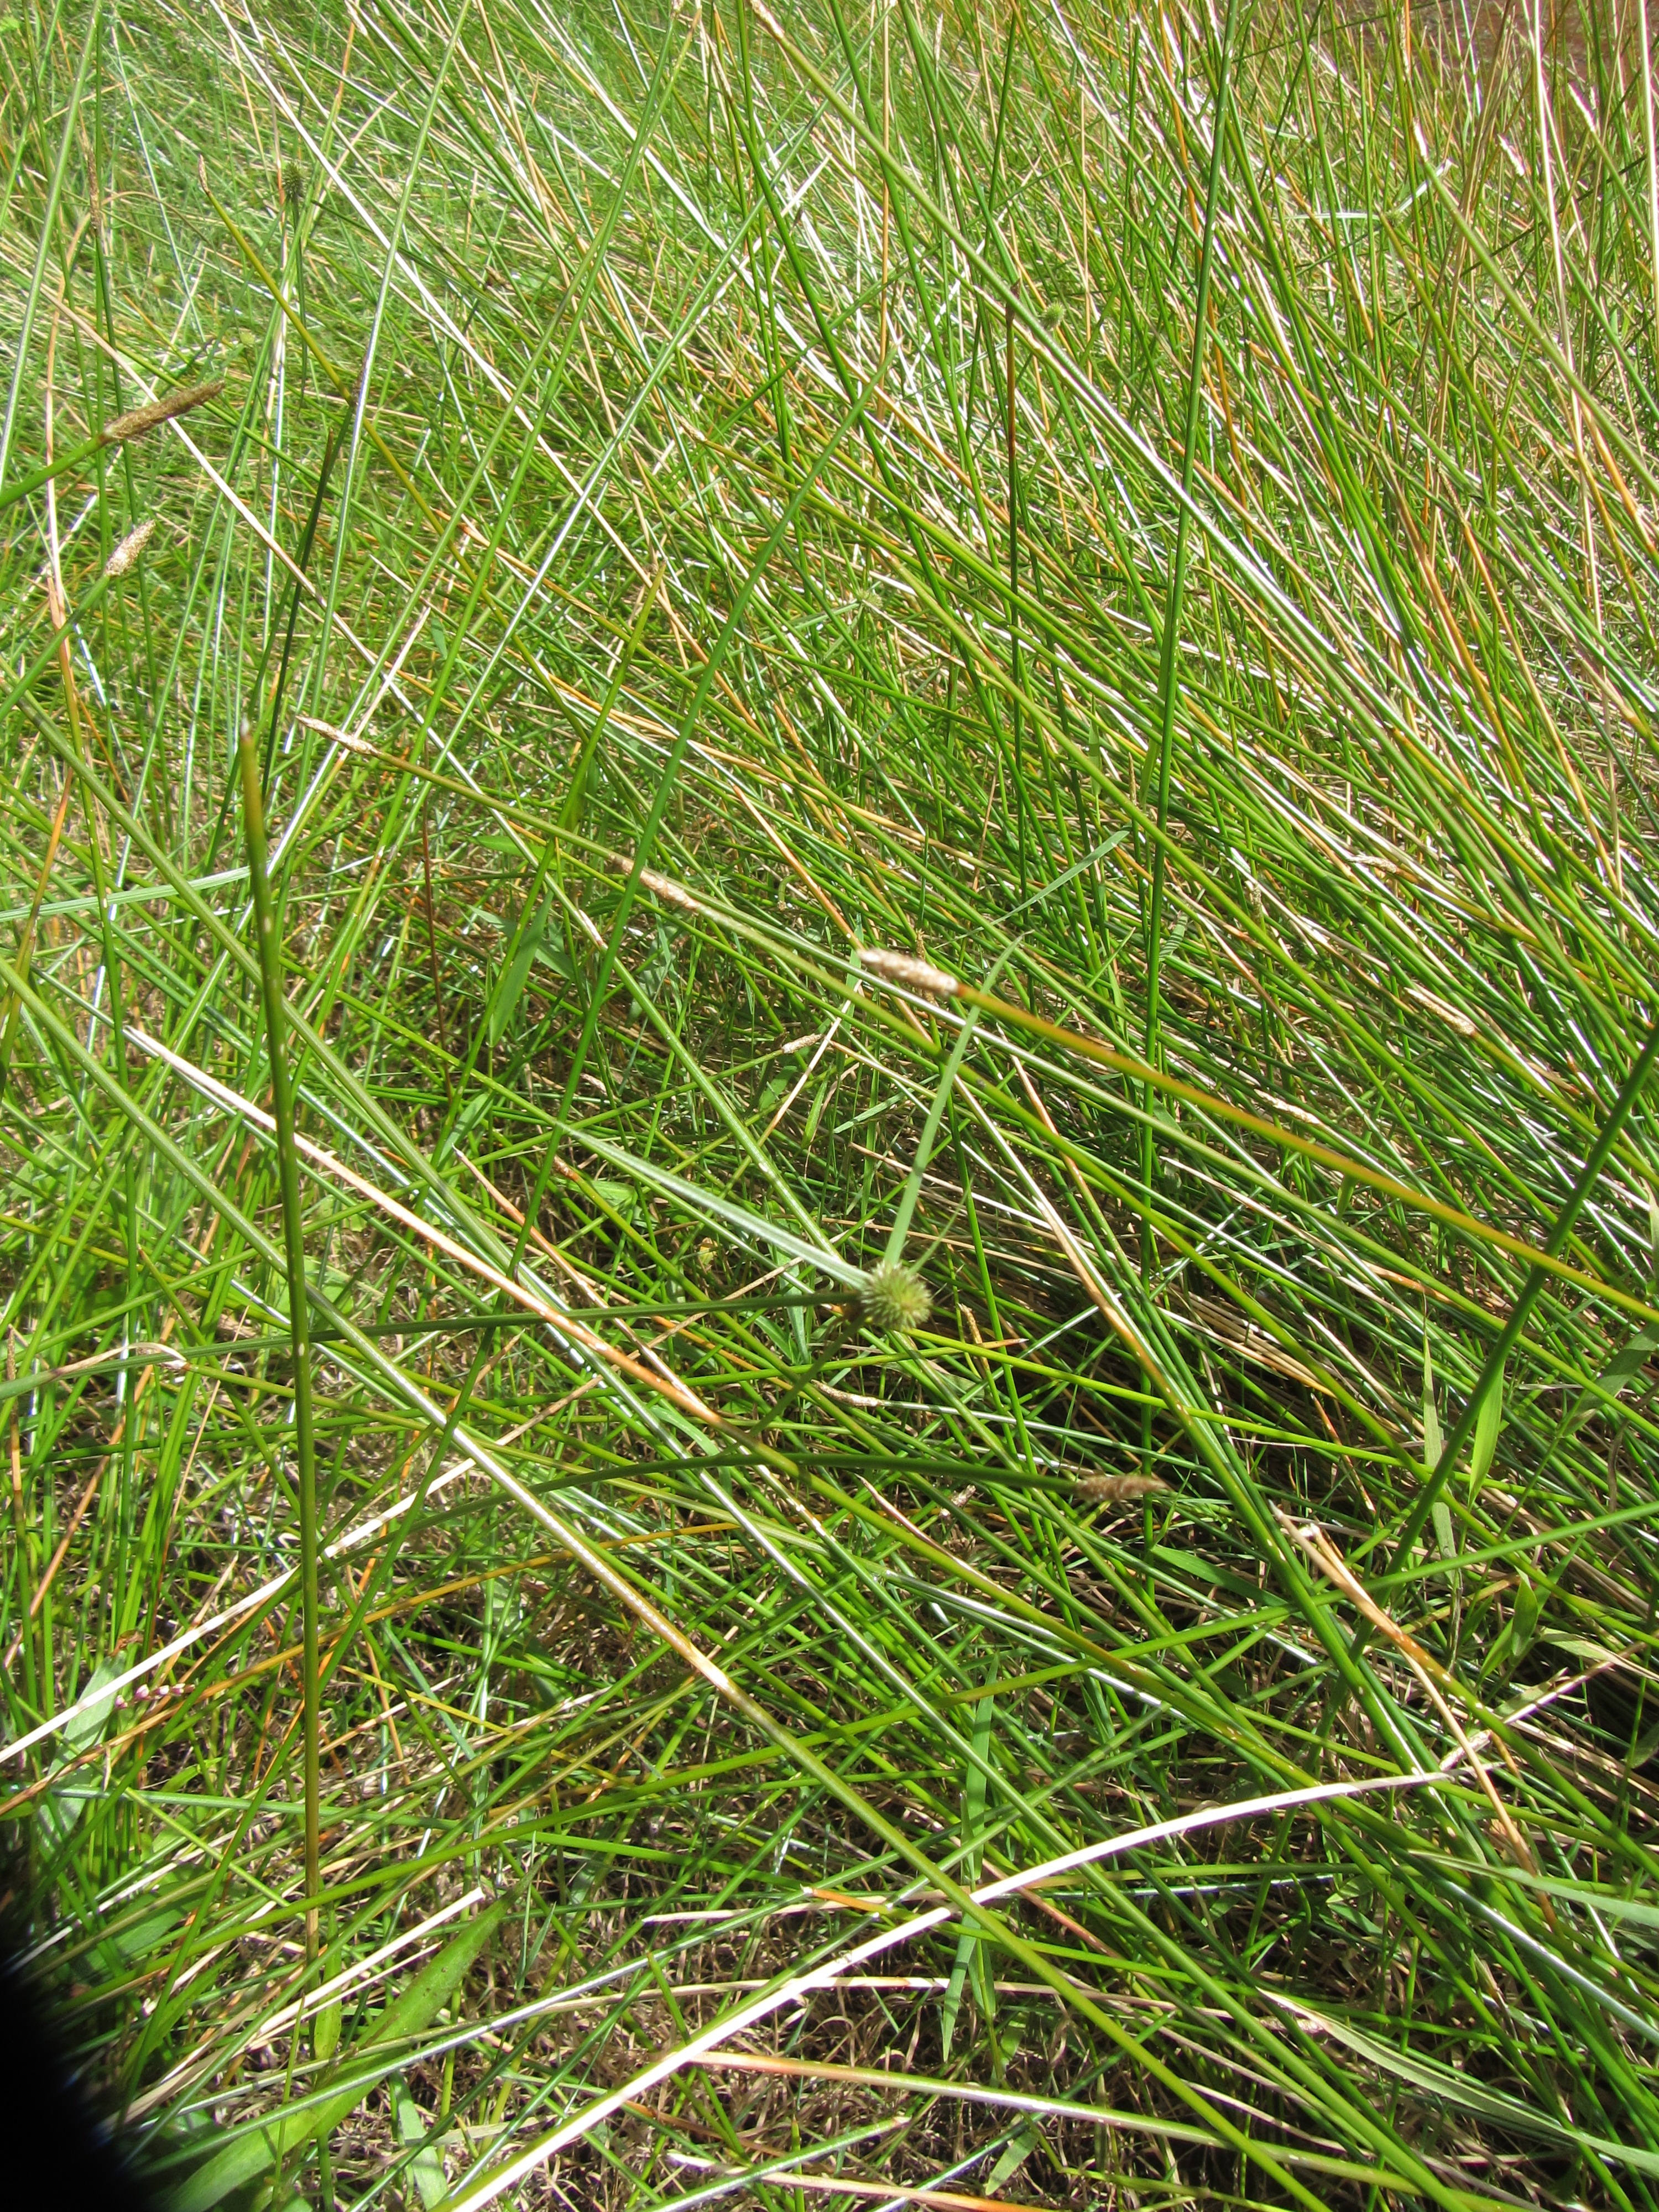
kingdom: Plantae
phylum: Tracheophyta
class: Liliopsida
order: Poales
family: Cyperaceae
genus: Cyperus
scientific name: Cyperus brevifolius
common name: Globe kyllinga
